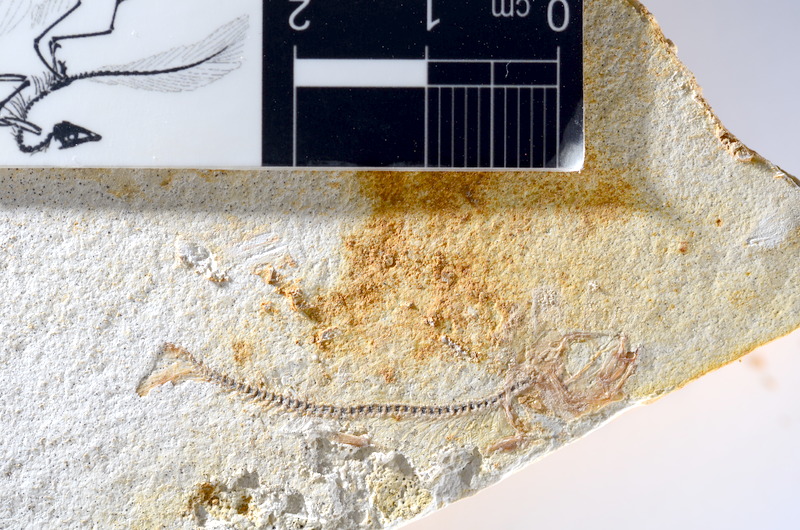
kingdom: Animalia
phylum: Chordata
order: Salmoniformes
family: Orthogonikleithridae
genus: Orthogonikleithrus
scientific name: Orthogonikleithrus hoelli
